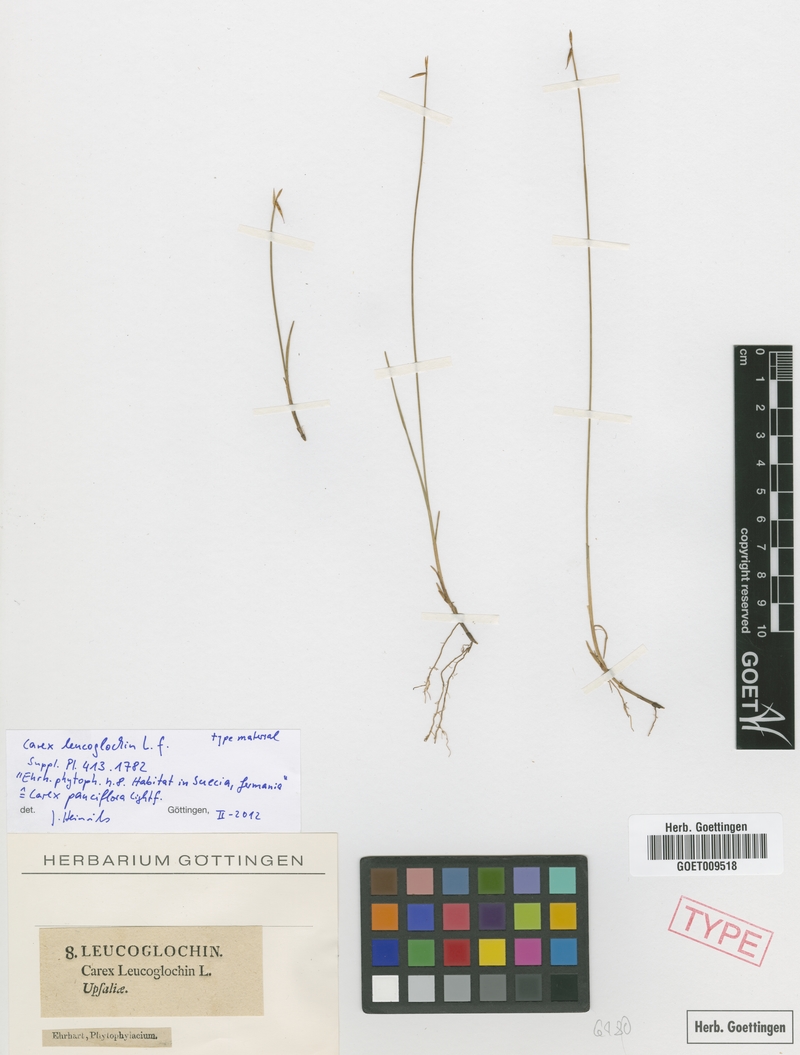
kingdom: Plantae
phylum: Tracheophyta
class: Liliopsida
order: Poales
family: Cyperaceae
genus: Carex
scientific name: Carex pauciflora
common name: Few-flowered sedge
